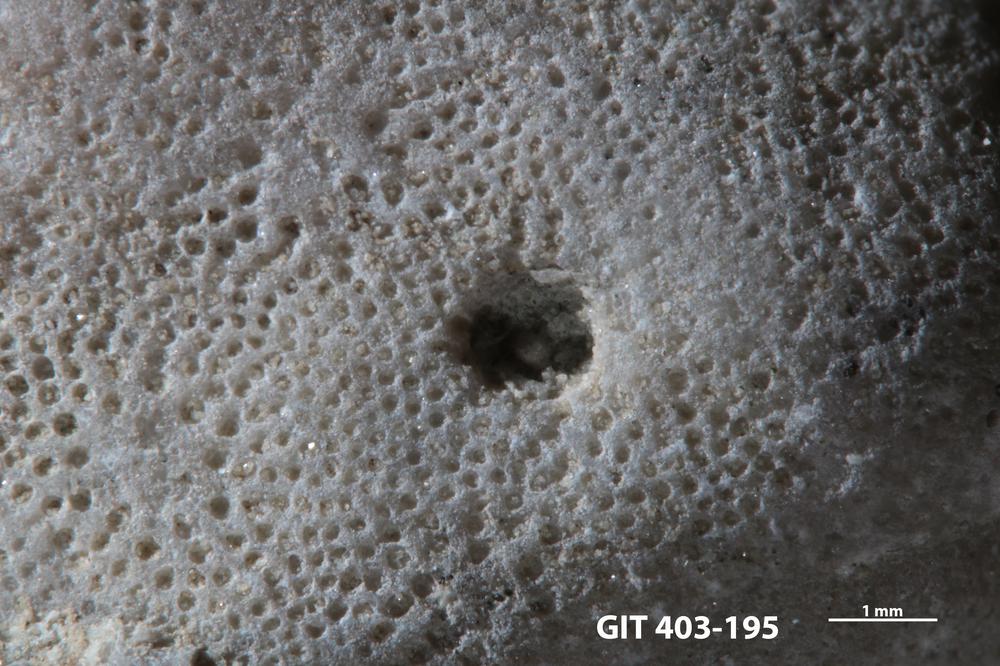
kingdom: Animalia
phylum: Sipuncula
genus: Trypanites
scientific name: Trypanites
